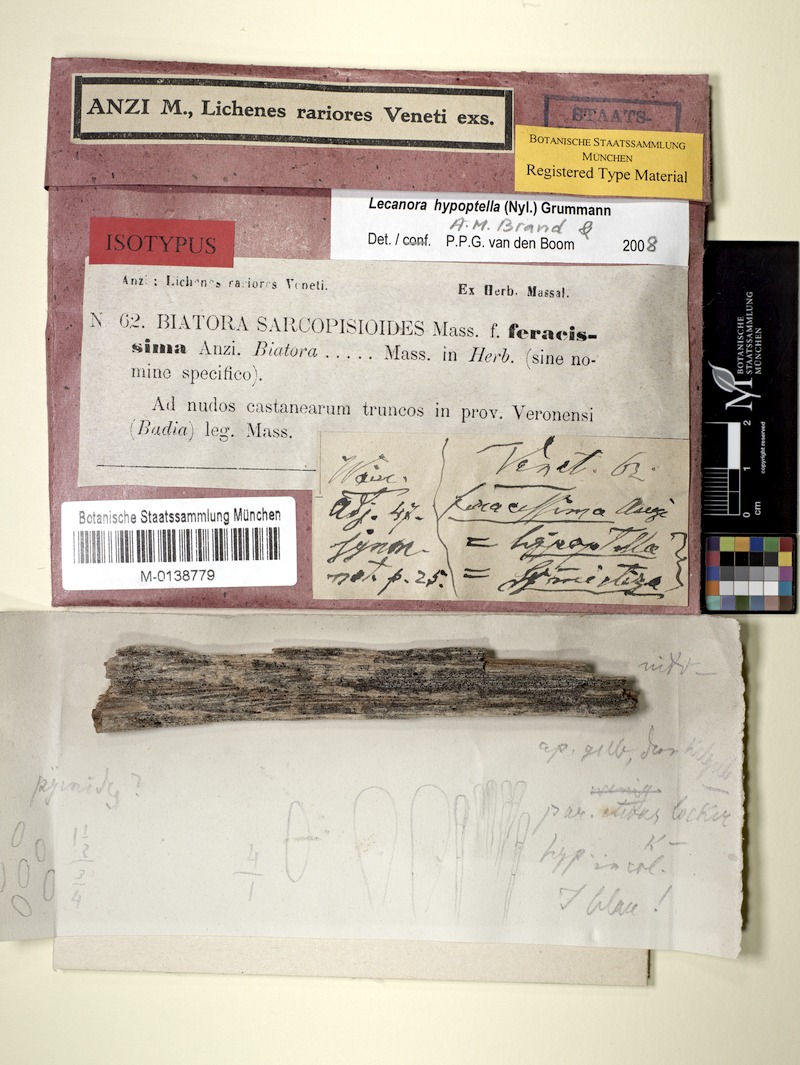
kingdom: Fungi
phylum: Ascomycota
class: Lecanoromycetes
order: Lecanorales
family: Lecanoraceae
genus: Lecanora
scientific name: Lecanora hypoptella
